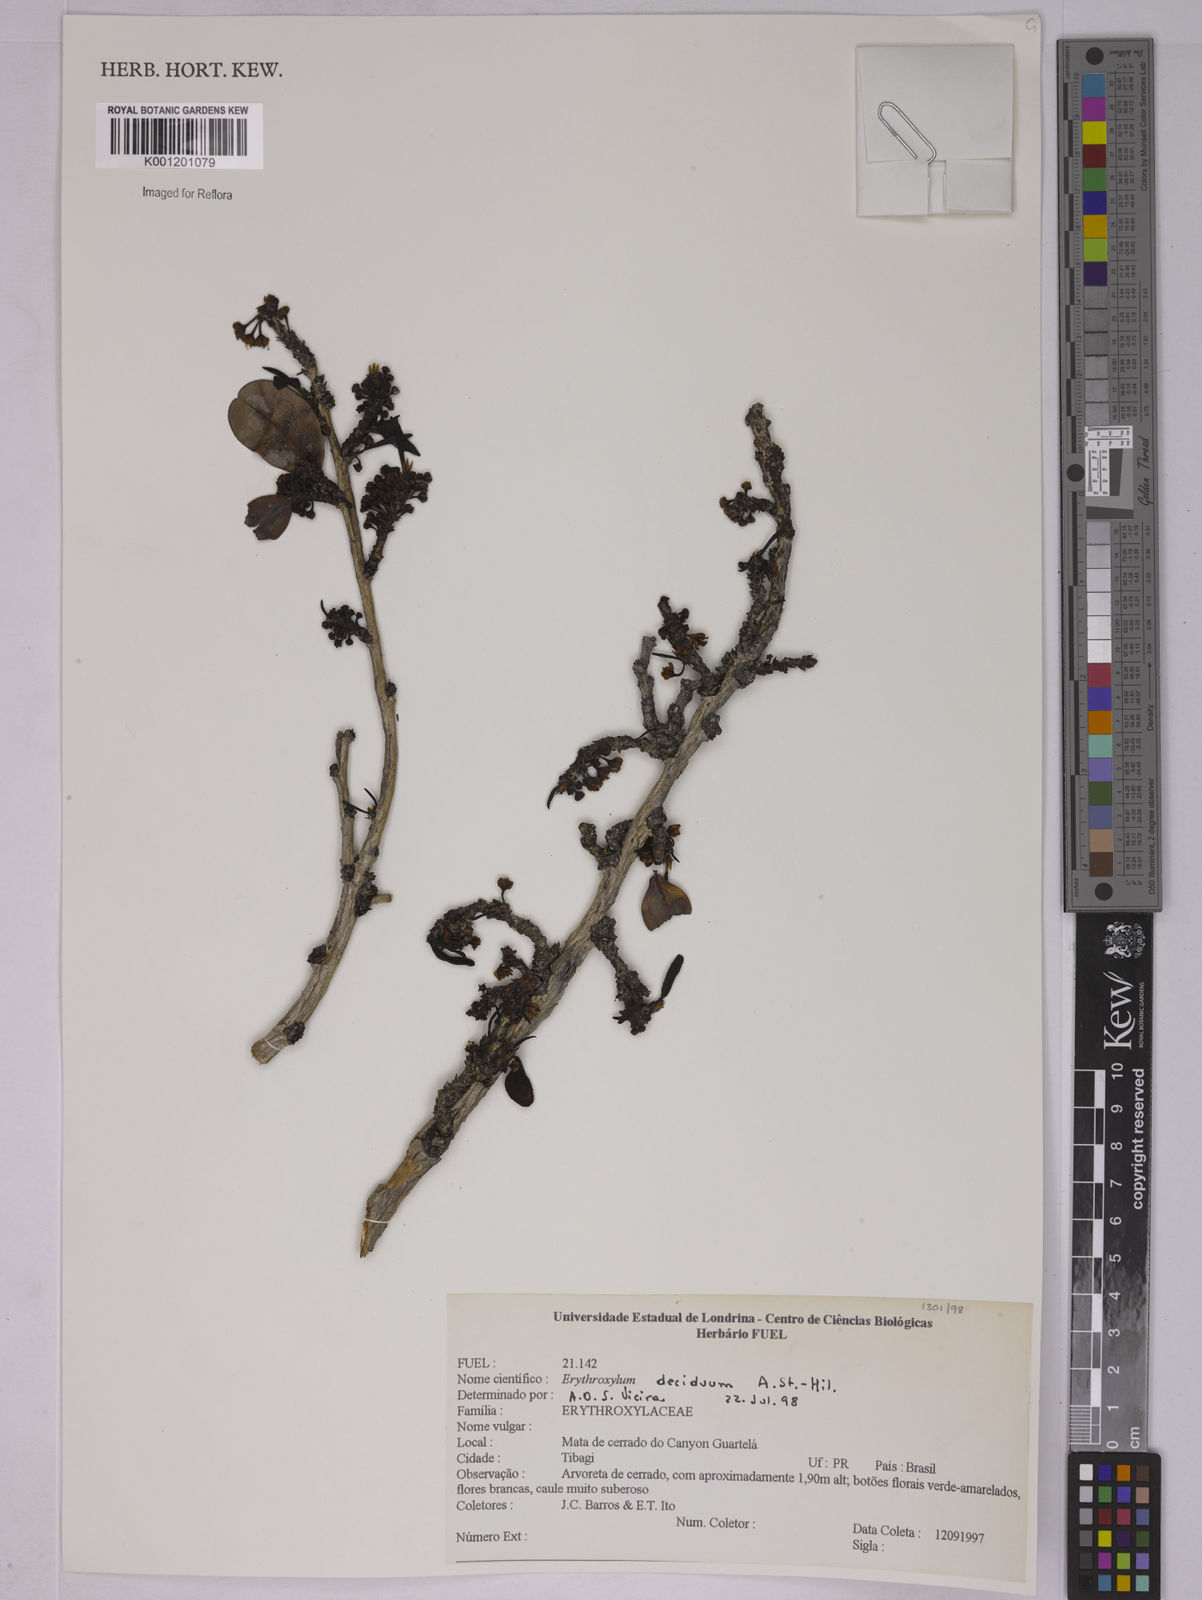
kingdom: Plantae
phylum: Tracheophyta
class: Magnoliopsida
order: Malpighiales
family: Erythroxylaceae
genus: Erythroxylum
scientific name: Erythroxylum deciduum
